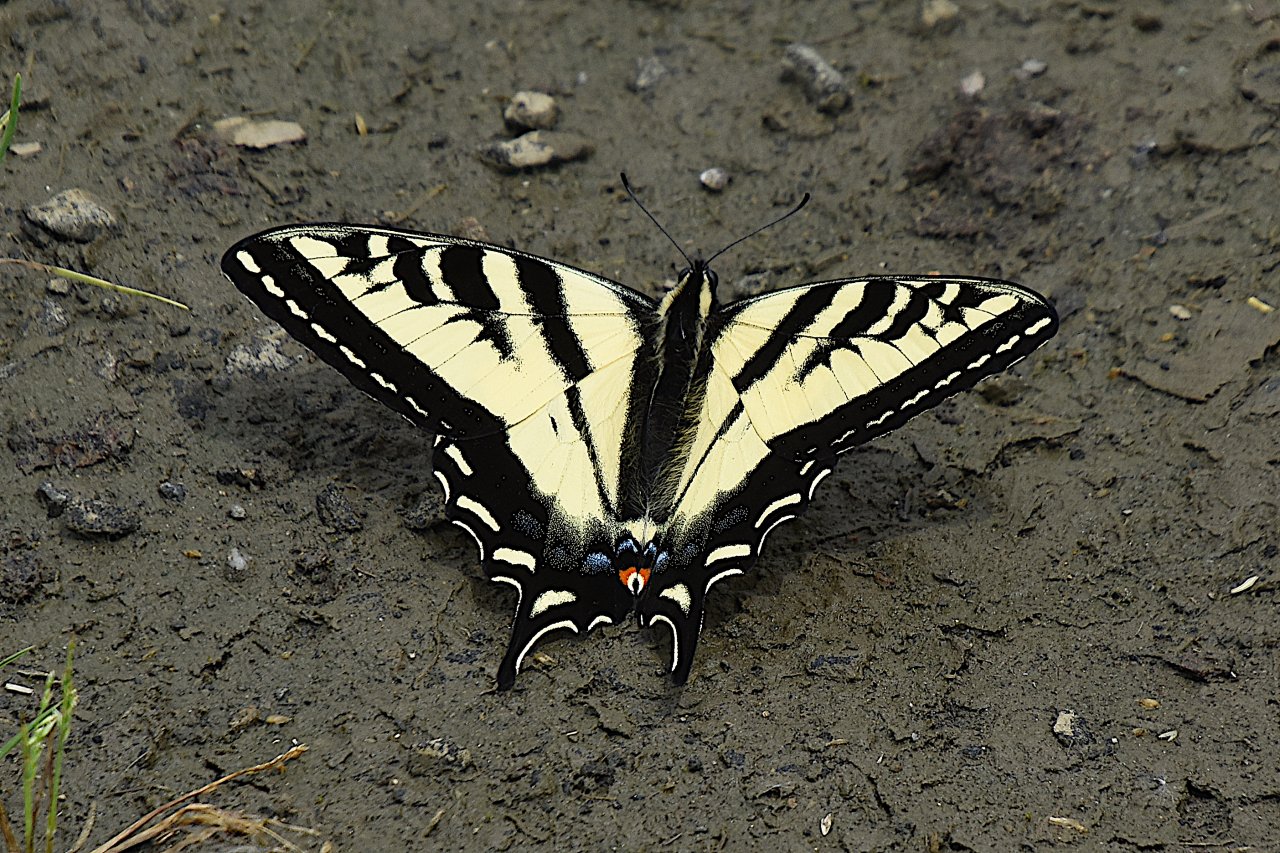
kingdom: Animalia
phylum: Arthropoda
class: Insecta
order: Lepidoptera
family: Papilionidae
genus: Pterourus
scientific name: Pterourus rutulus
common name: Western Tiger Swallowtail
